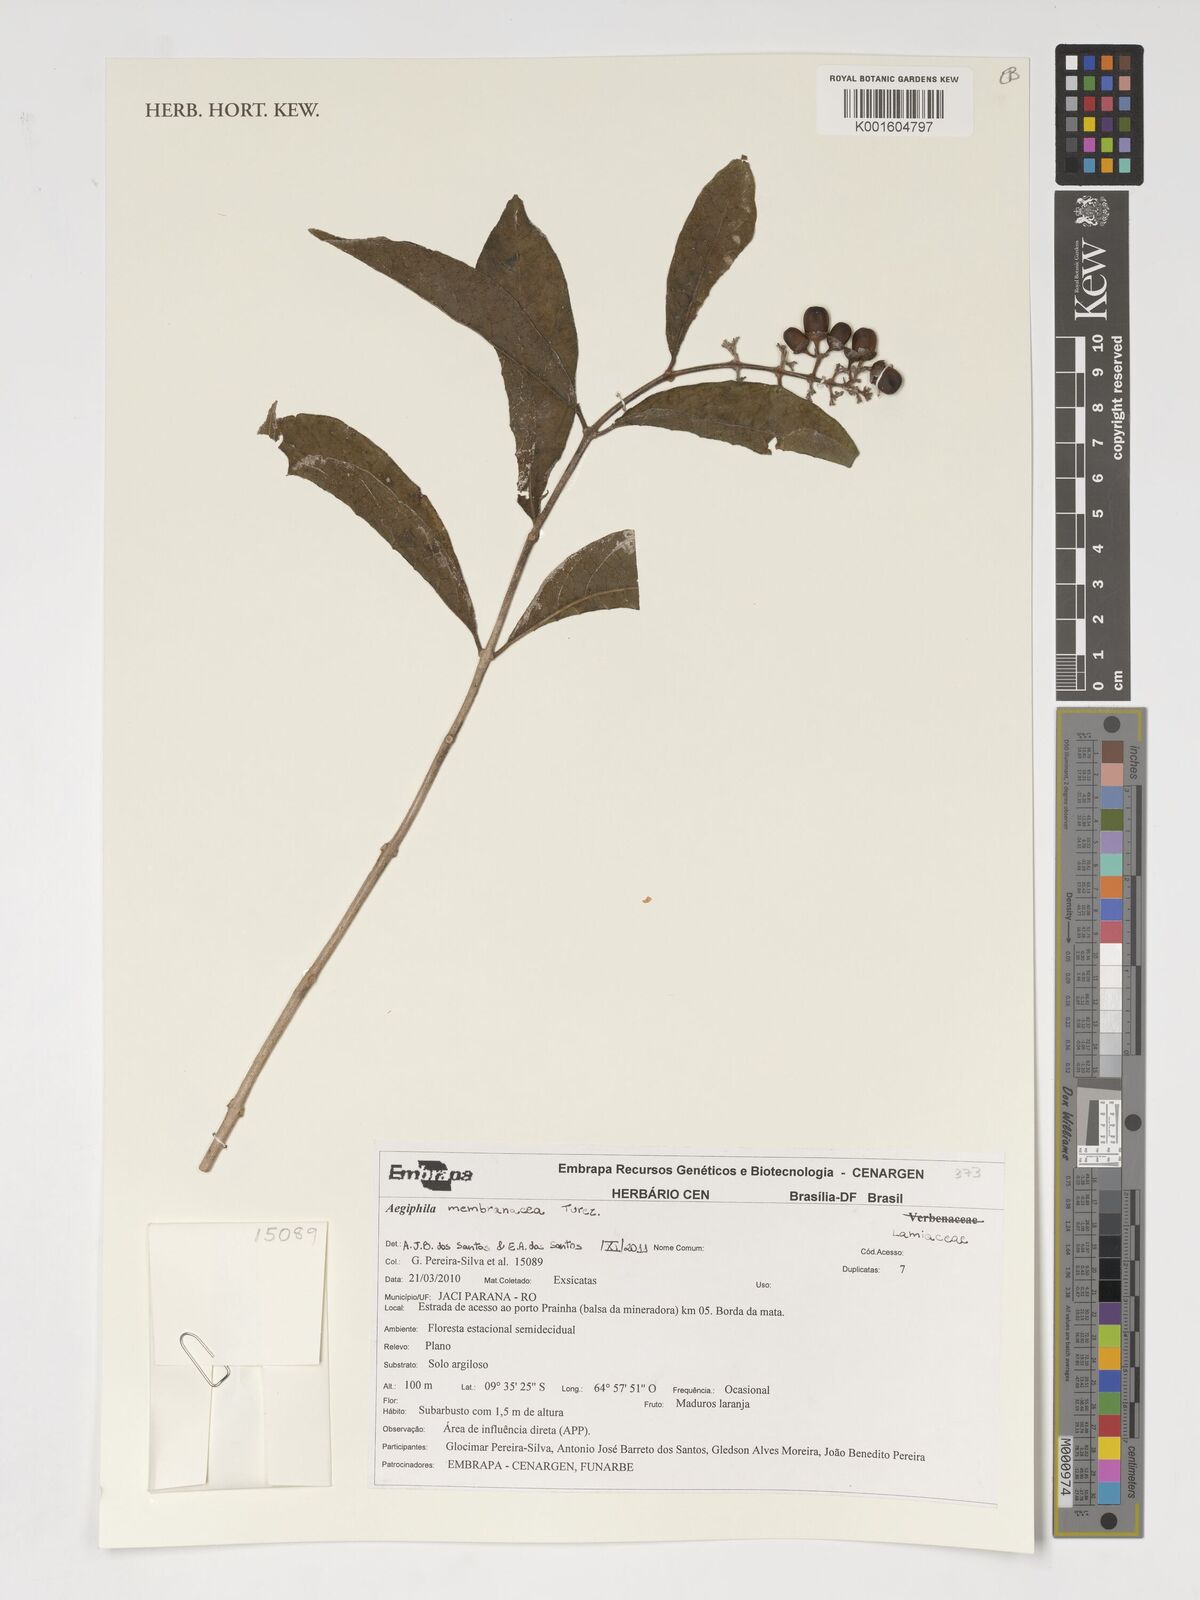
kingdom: Plantae
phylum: Tracheophyta
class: Magnoliopsida
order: Lamiales
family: Lamiaceae
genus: Aegiphila
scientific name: Aegiphila membranacea
